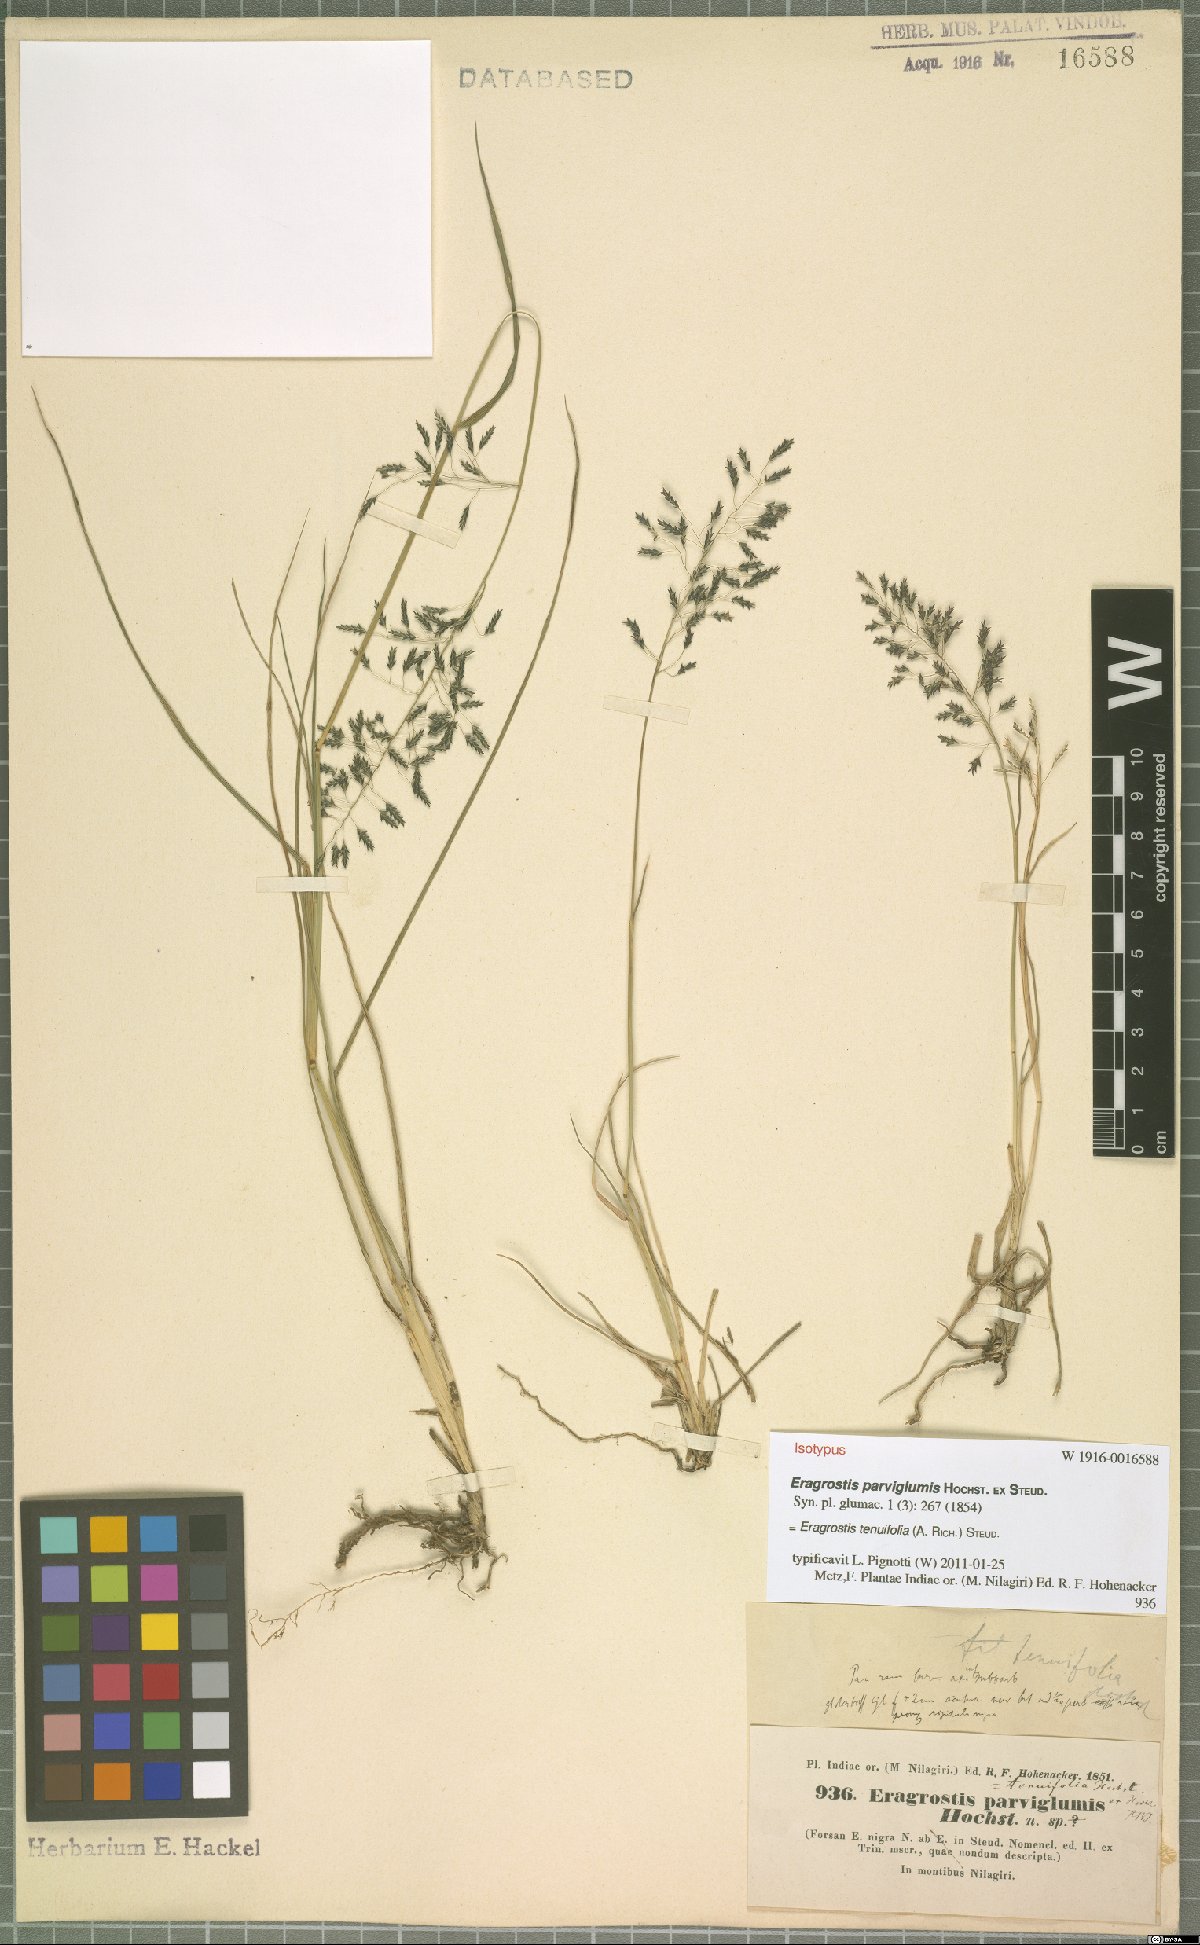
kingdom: Plantae
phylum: Tracheophyta
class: Liliopsida
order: Poales
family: Poaceae
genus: Eragrostis
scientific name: Eragrostis tenuifolia
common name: Elastic grass
